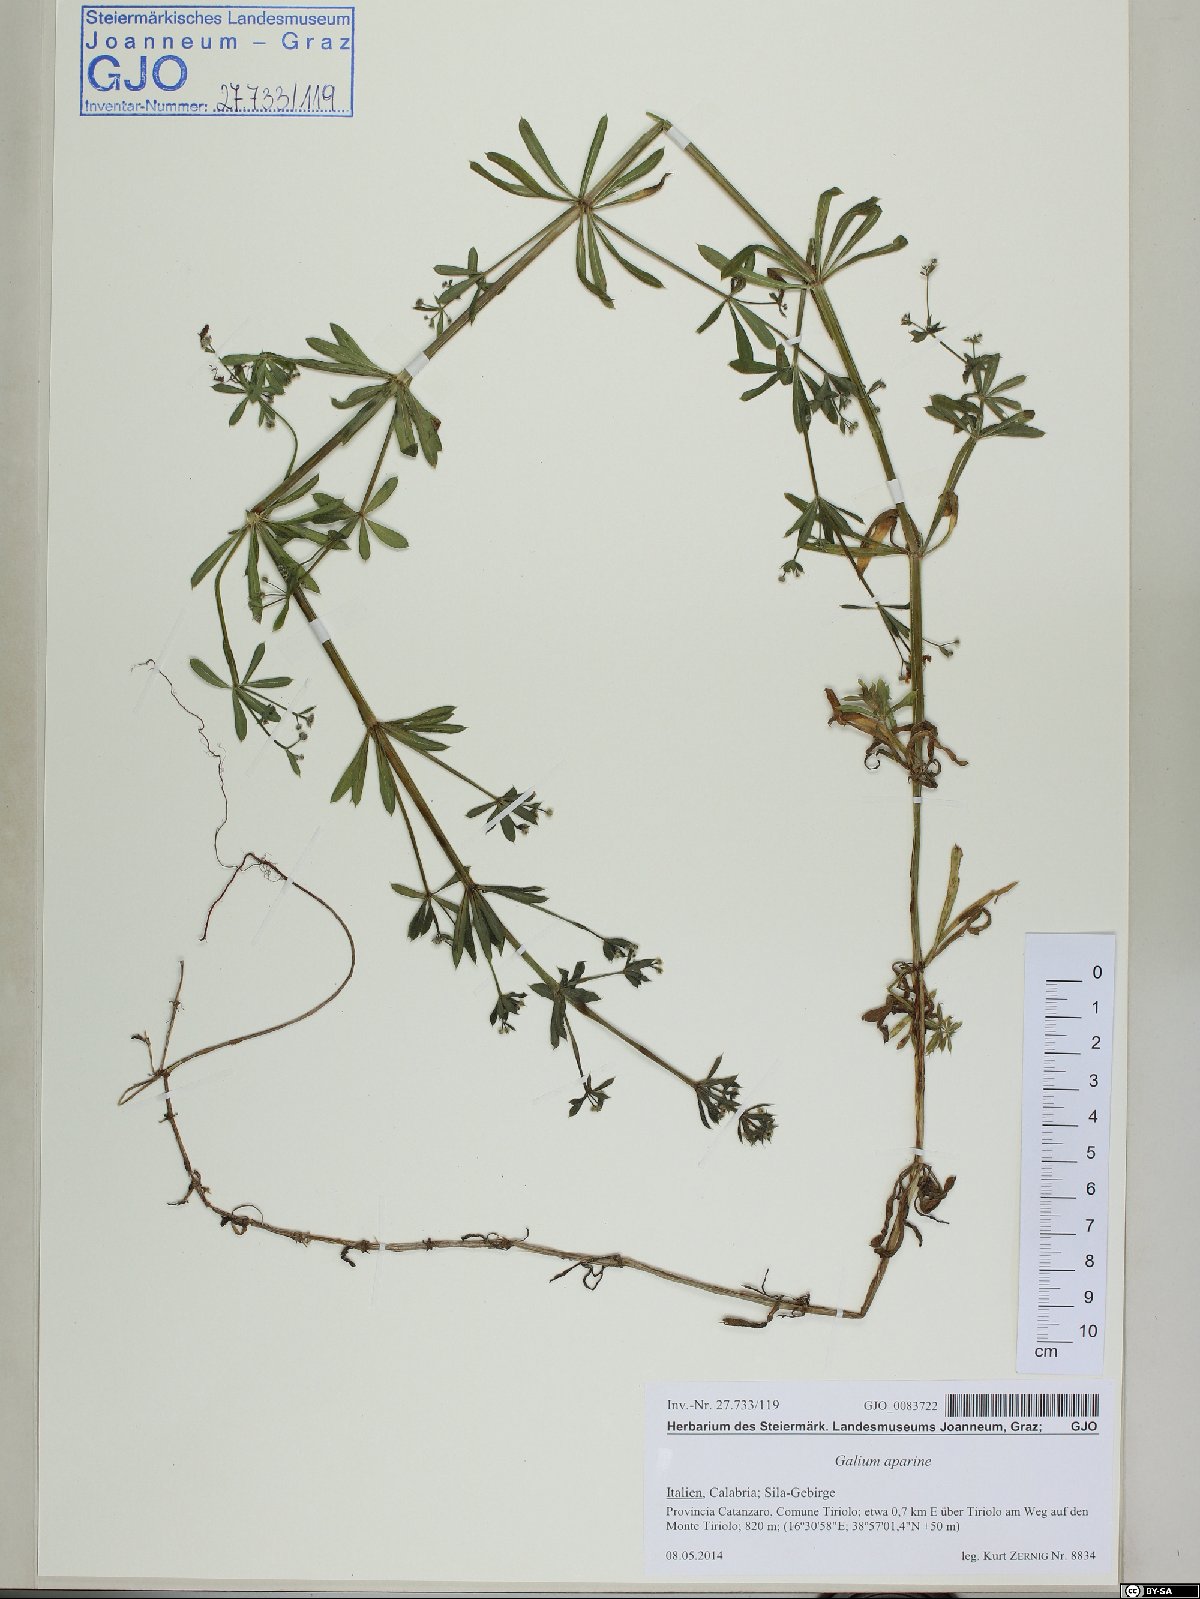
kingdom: Plantae
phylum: Tracheophyta
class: Magnoliopsida
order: Gentianales
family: Rubiaceae
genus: Galium
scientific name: Galium aparine
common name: Cleavers
